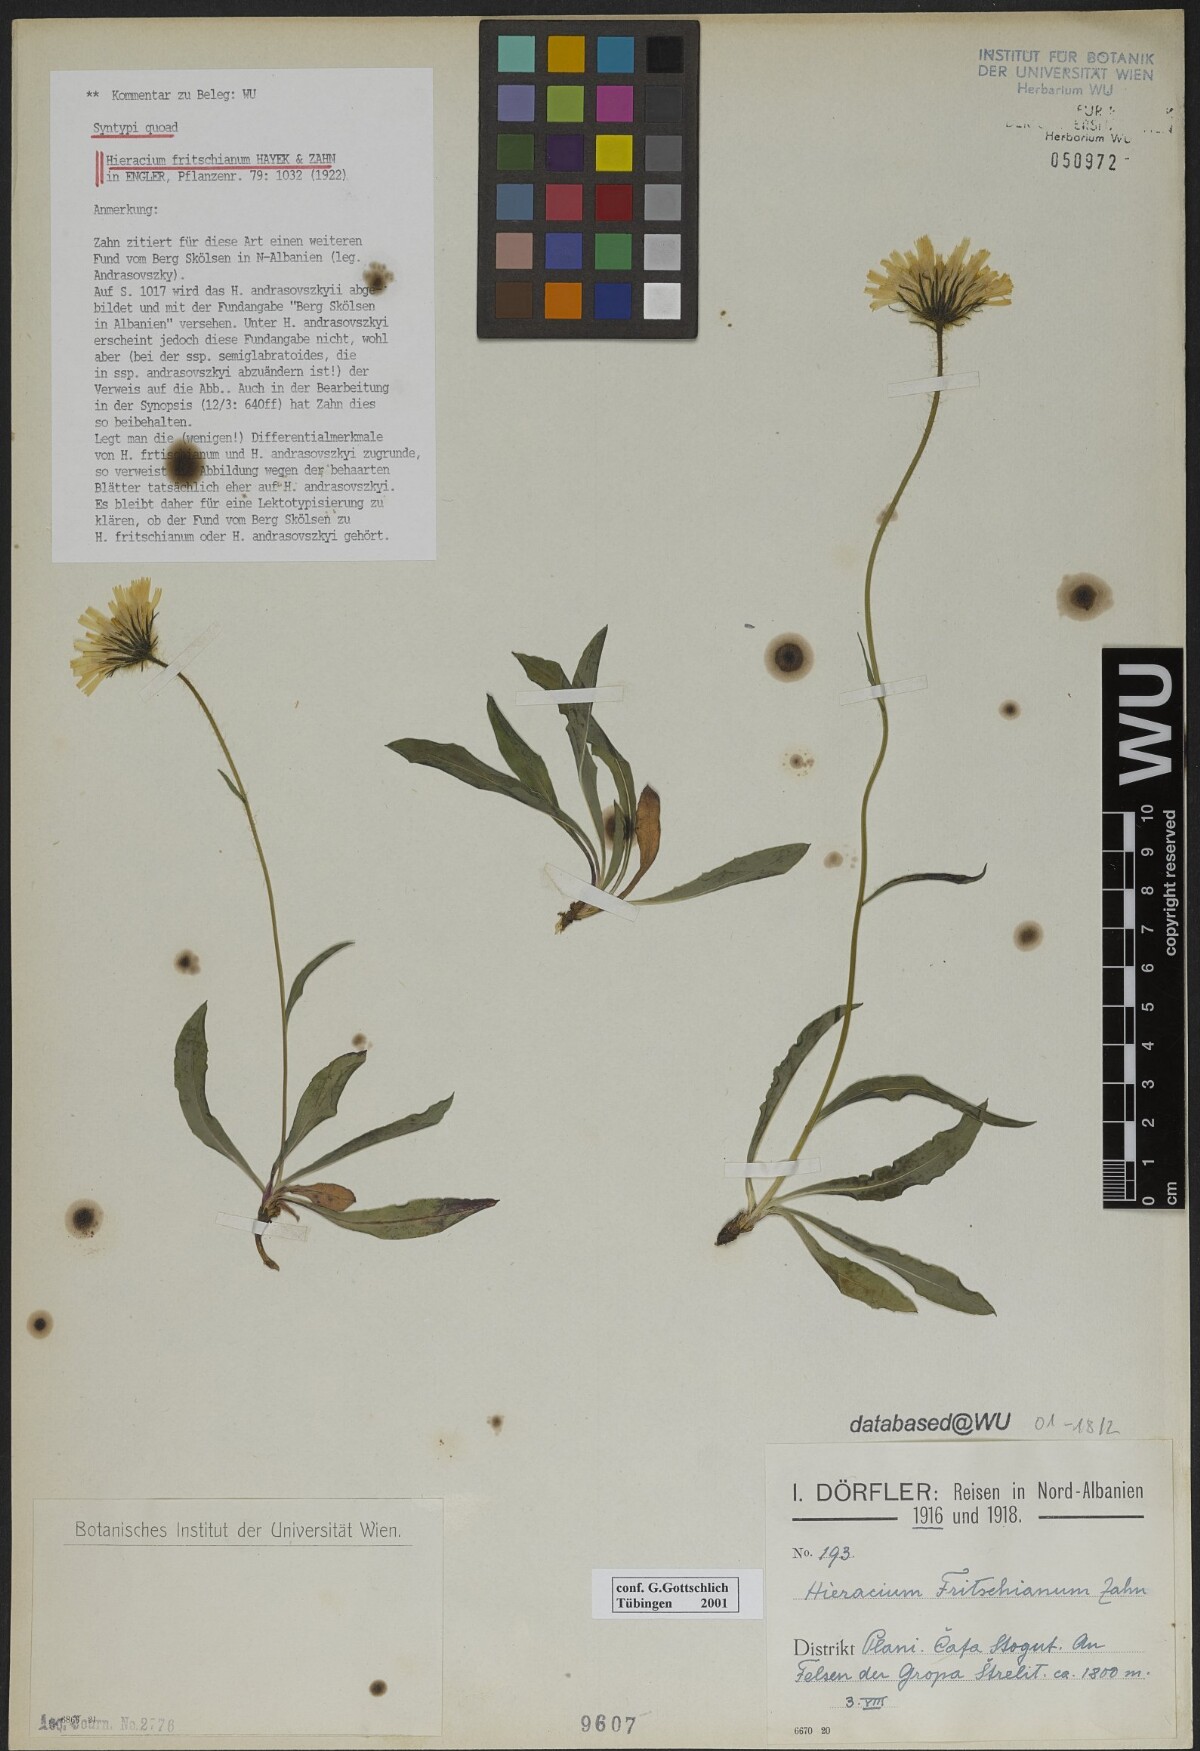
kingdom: Plantae
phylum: Tracheophyta
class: Magnoliopsida
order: Asterales
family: Asteraceae
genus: Hieracium
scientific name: Hieracium fritschianum
